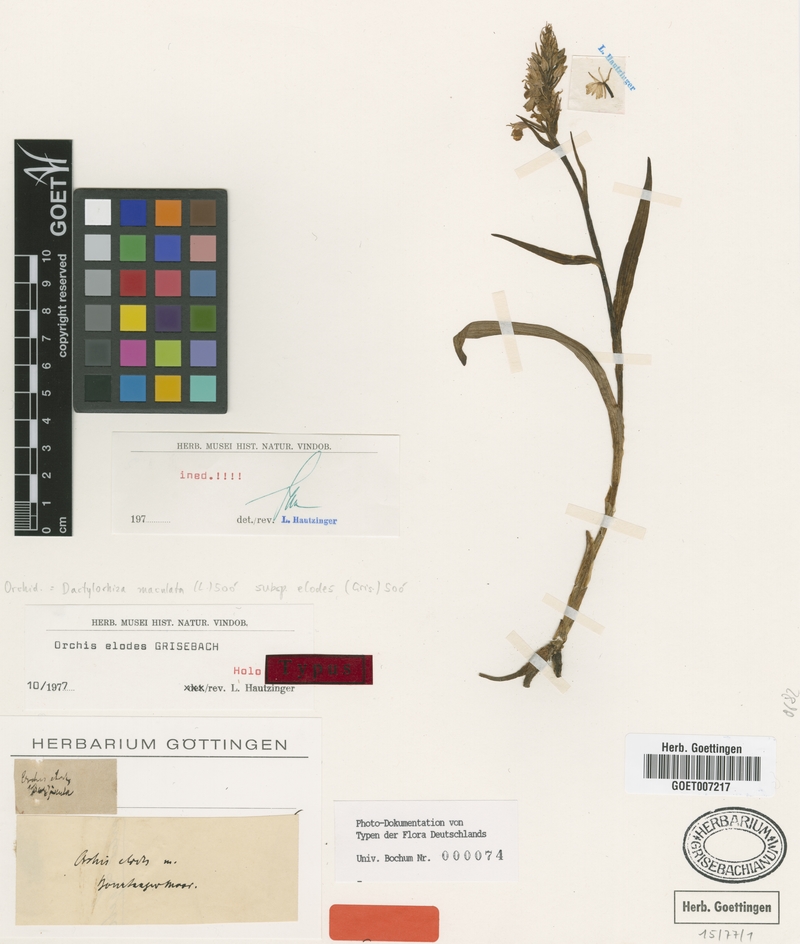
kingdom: Plantae
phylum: Tracheophyta
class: Liliopsida
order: Asparagales
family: Orchidaceae
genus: Dactylorhiza
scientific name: Dactylorhiza maculata
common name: Heath spotted-orchid
